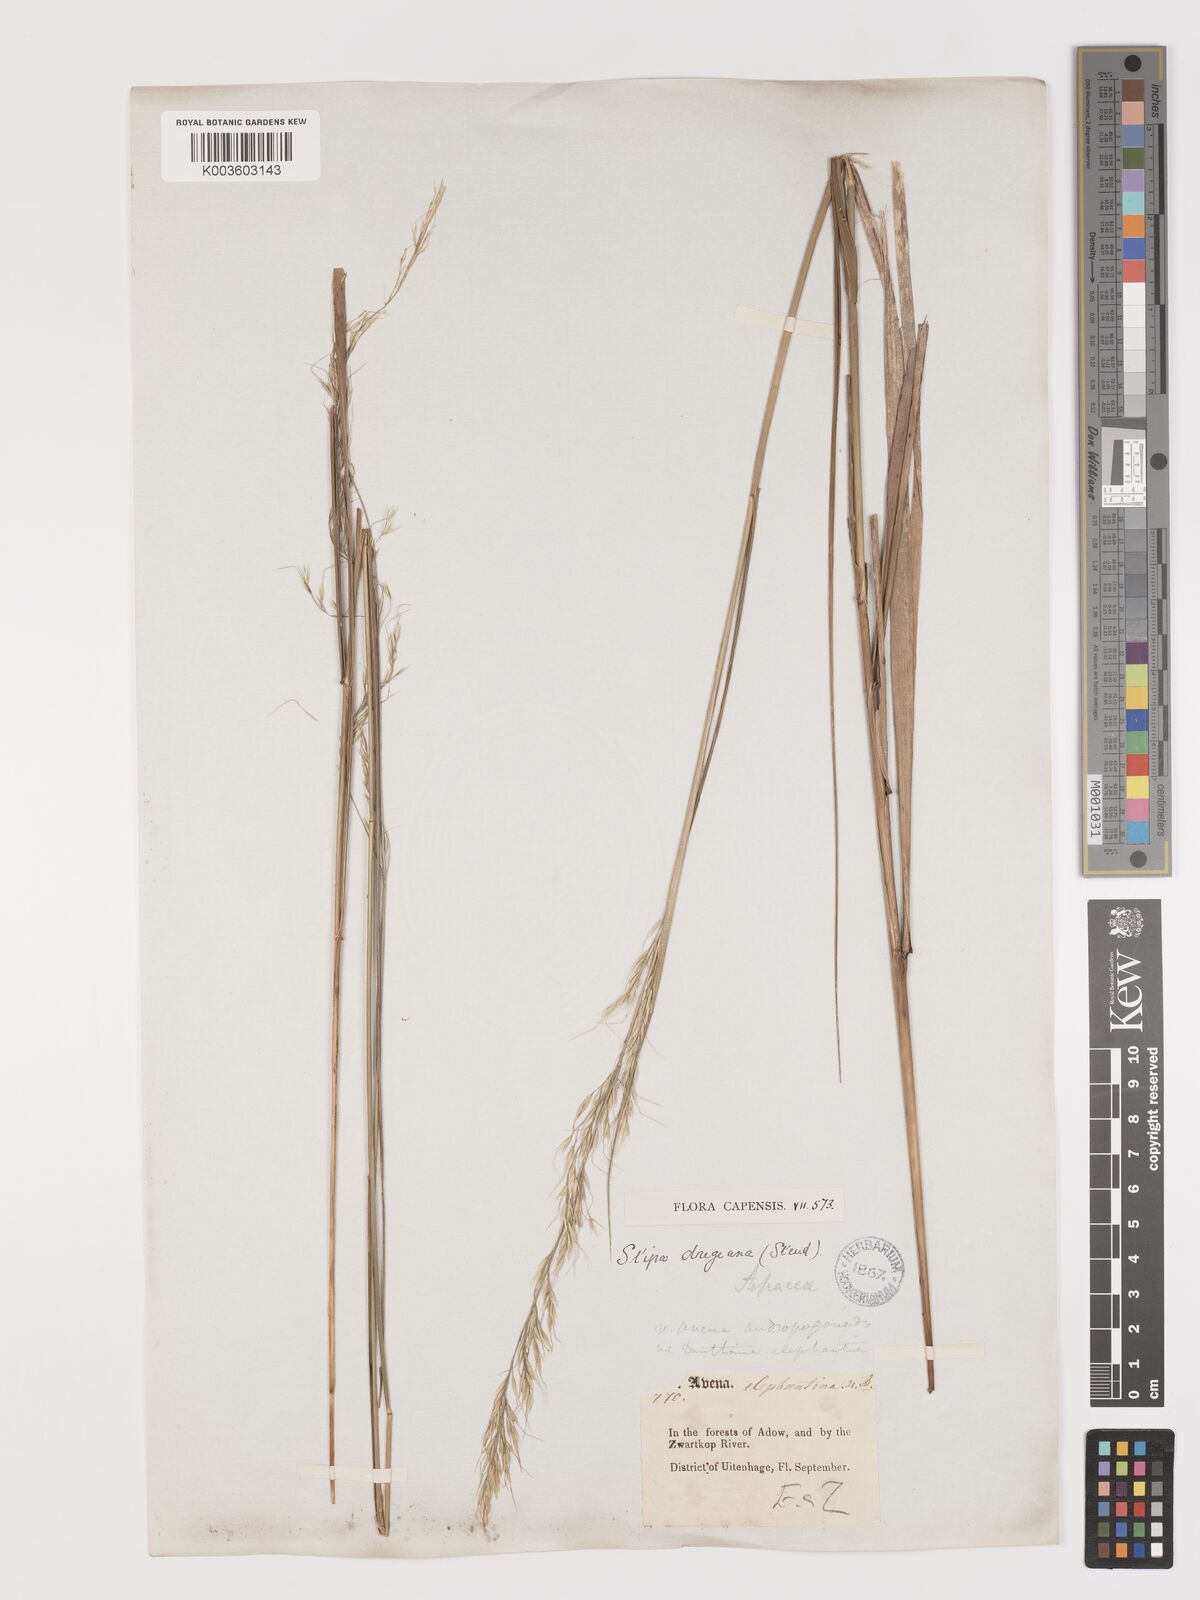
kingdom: Plantae
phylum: Tracheophyta
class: Liliopsida
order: Poales
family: Poaceae
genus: Stipa
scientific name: Stipa dregeana
